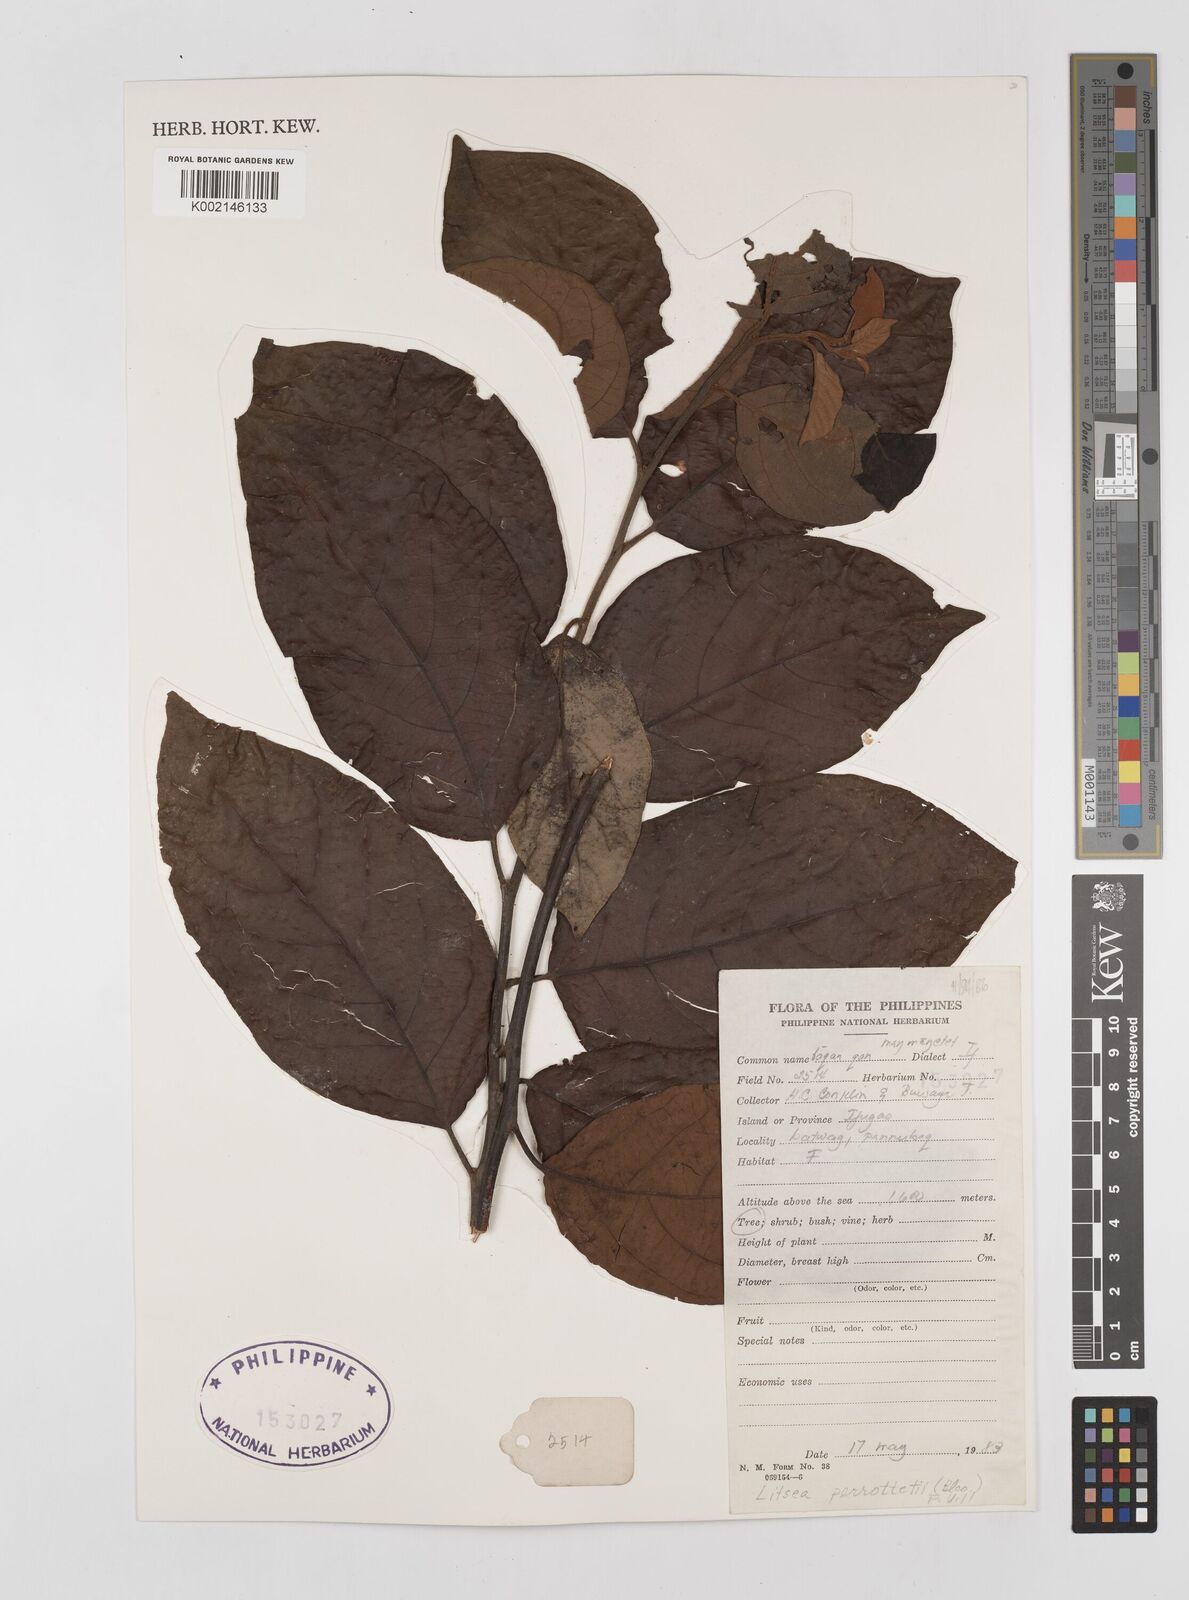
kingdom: Plantae
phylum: Tracheophyta
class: Magnoliopsida
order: Laurales
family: Lauraceae
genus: Litsea
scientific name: Litsea cordata
